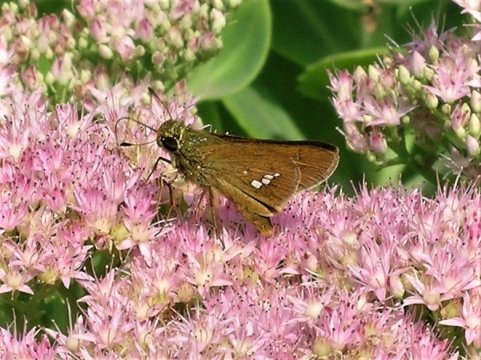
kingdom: Animalia
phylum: Arthropoda
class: Insecta
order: Lepidoptera
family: Hesperiidae
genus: Parnara
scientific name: Parnara guttatus
